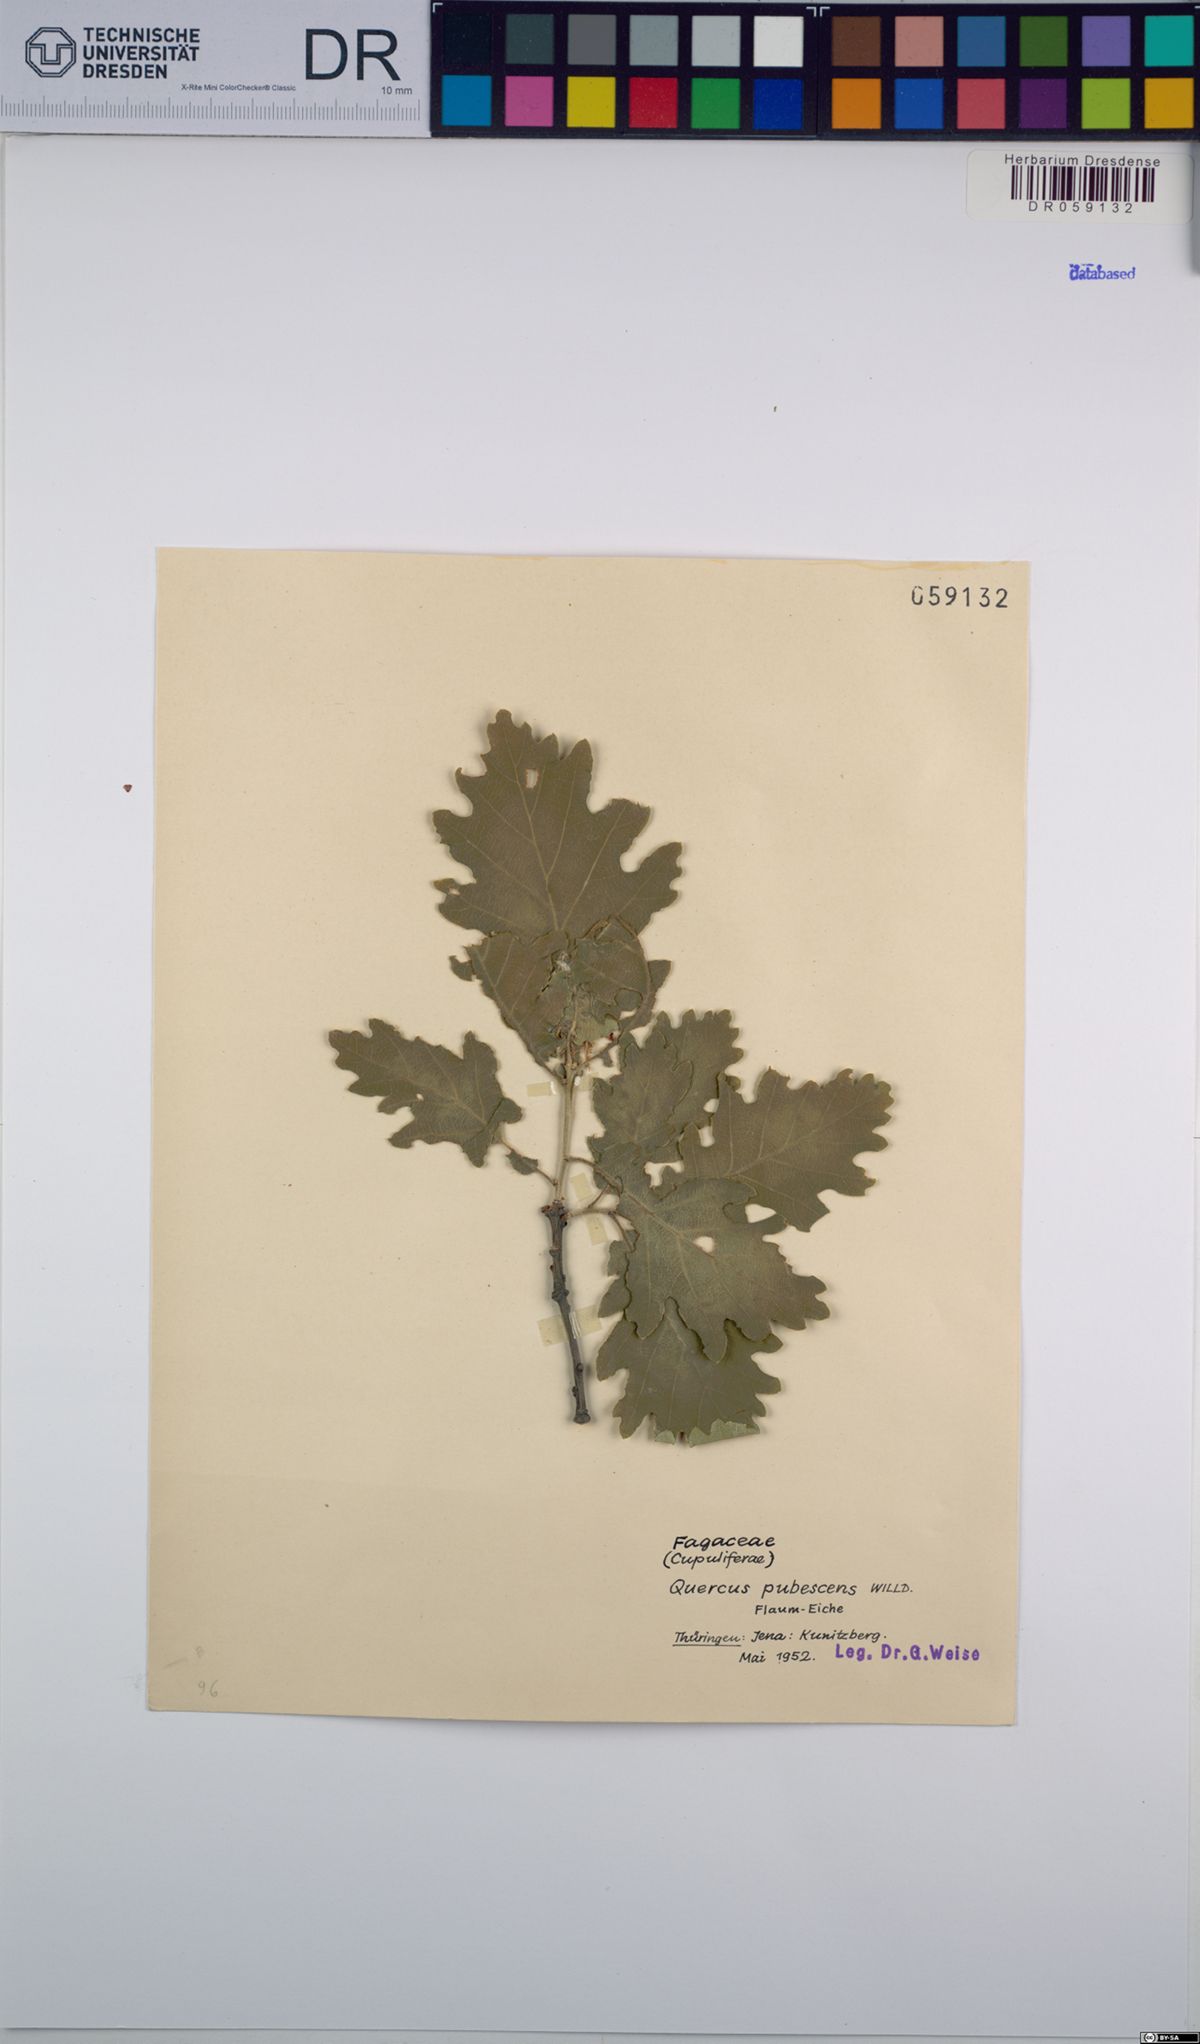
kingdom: Plantae
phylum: Tracheophyta
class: Magnoliopsida
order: Fagales
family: Fagaceae
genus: Quercus
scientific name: Quercus pubescens
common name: Downy oak
